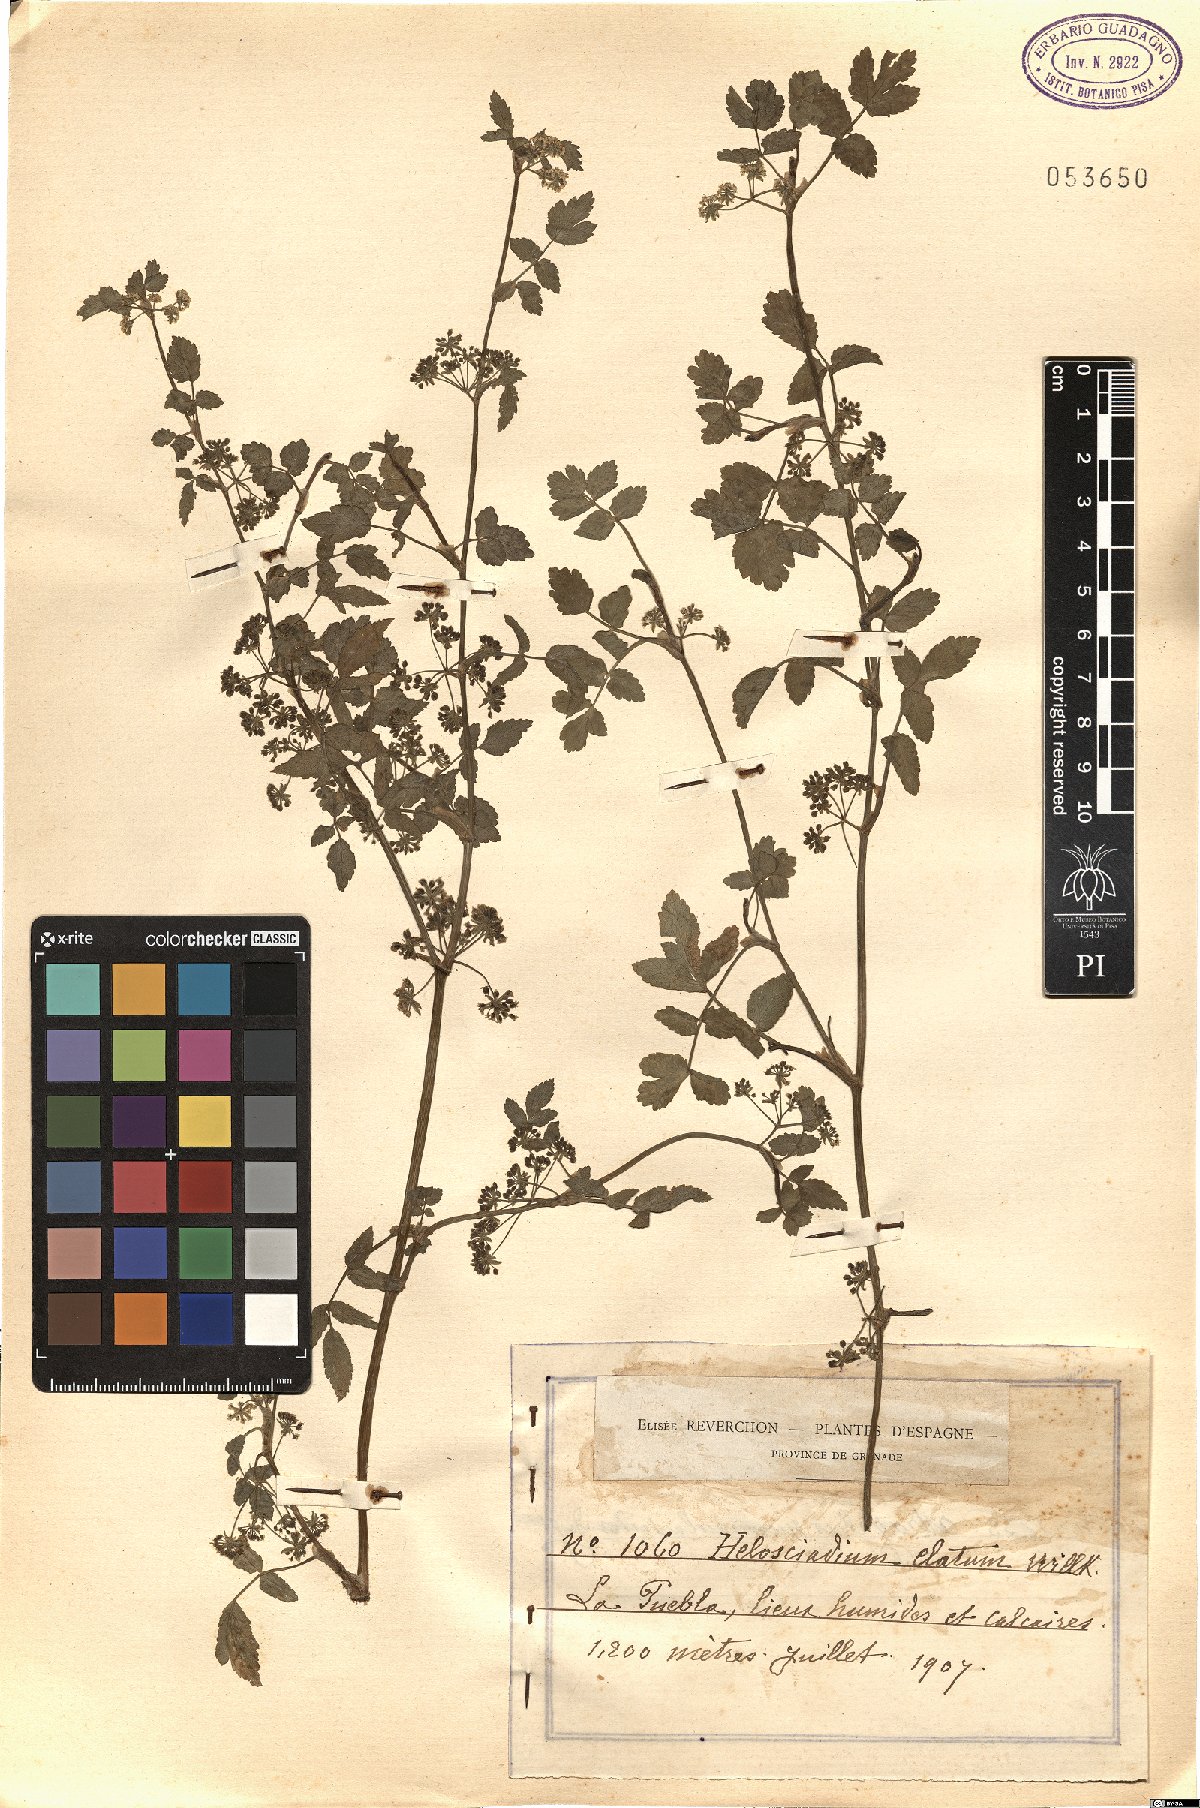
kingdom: Plantae
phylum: Tracheophyta
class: Magnoliopsida
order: Apiales
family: Apiaceae
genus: Helosciadium
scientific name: Helosciadium
